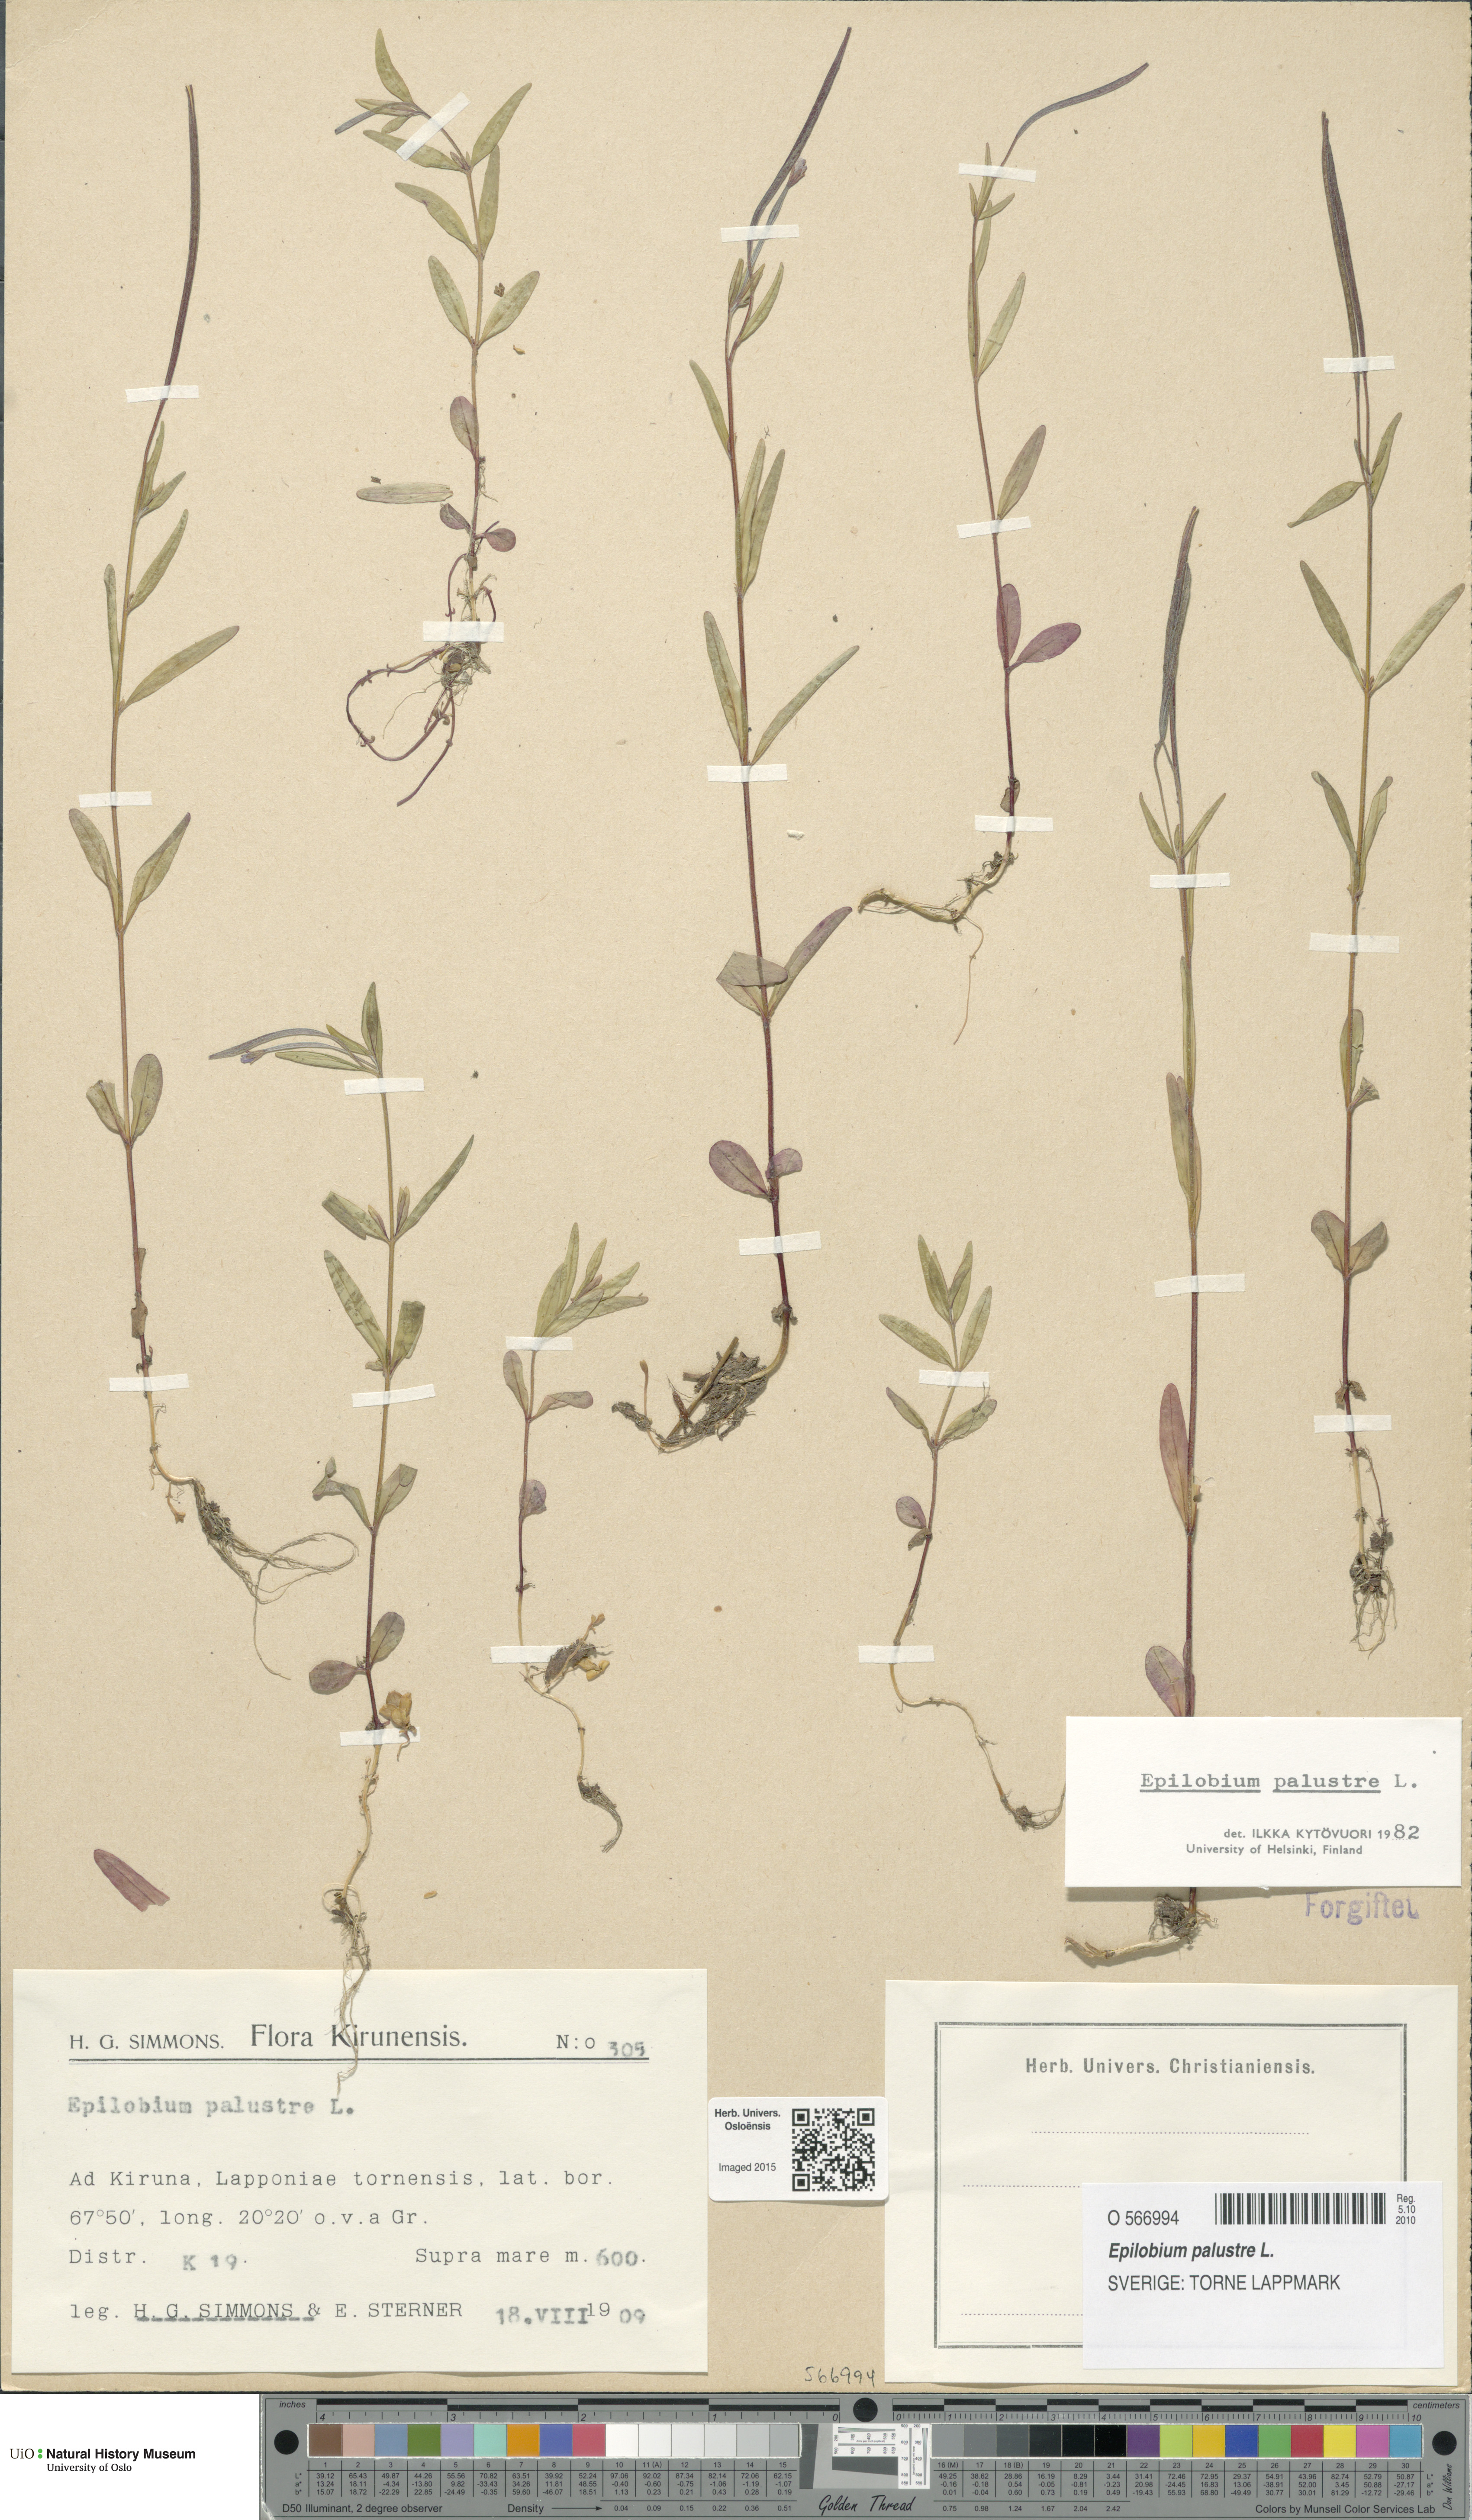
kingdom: Plantae
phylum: Tracheophyta
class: Magnoliopsida
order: Myrtales
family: Onagraceae
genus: Epilobium
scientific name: Epilobium palustre
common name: Marsh willowherb
